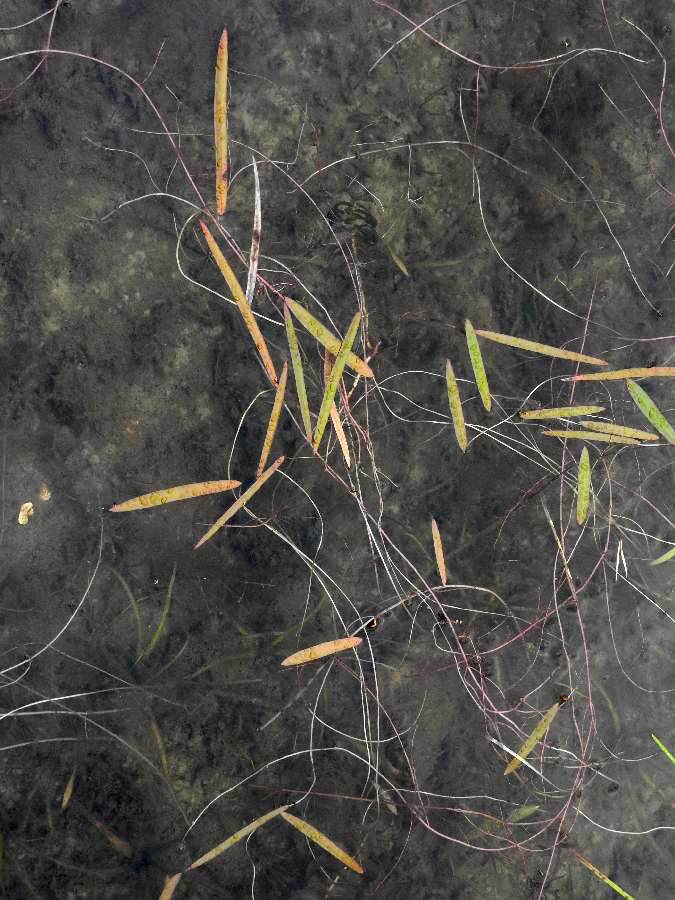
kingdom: Plantae
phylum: Tracheophyta
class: Liliopsida
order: Alismatales
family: Alismataceae
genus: Sagittaria
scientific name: Sagittaria natans
